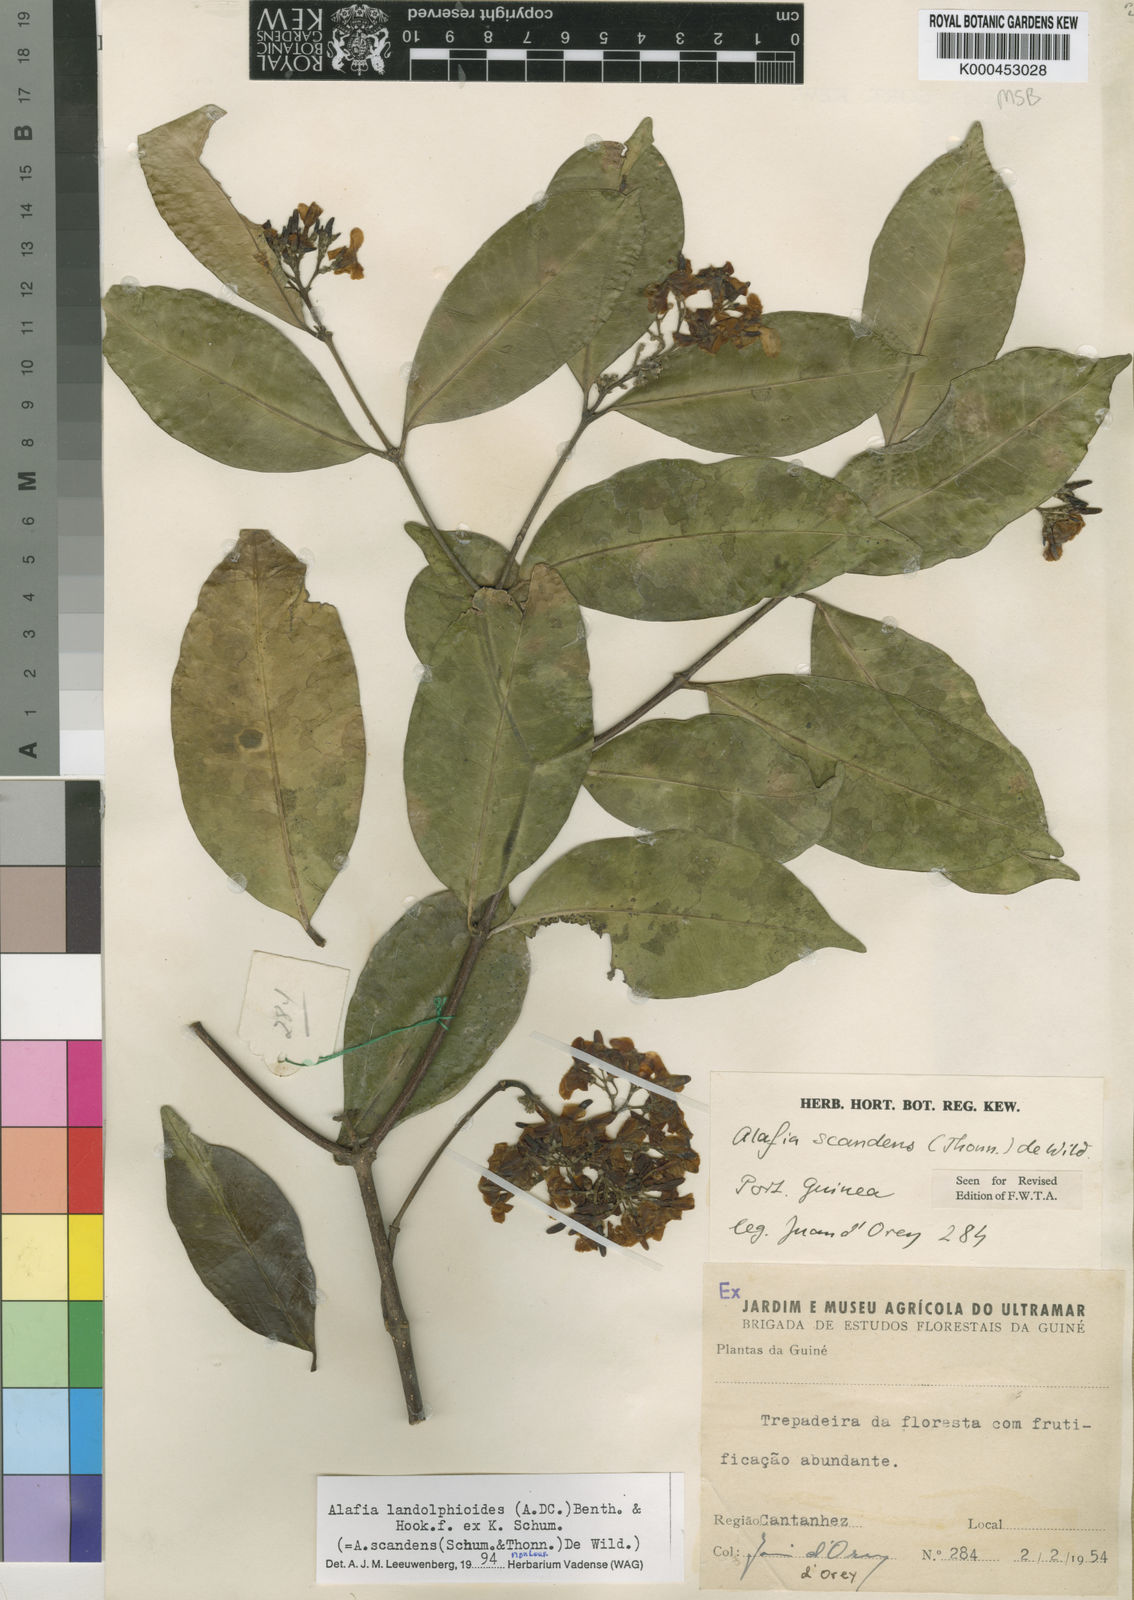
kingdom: Plantae
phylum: Tracheophyta
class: Magnoliopsida
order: Gentianales
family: Apocynaceae
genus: Alafia
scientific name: Alafia scandens
